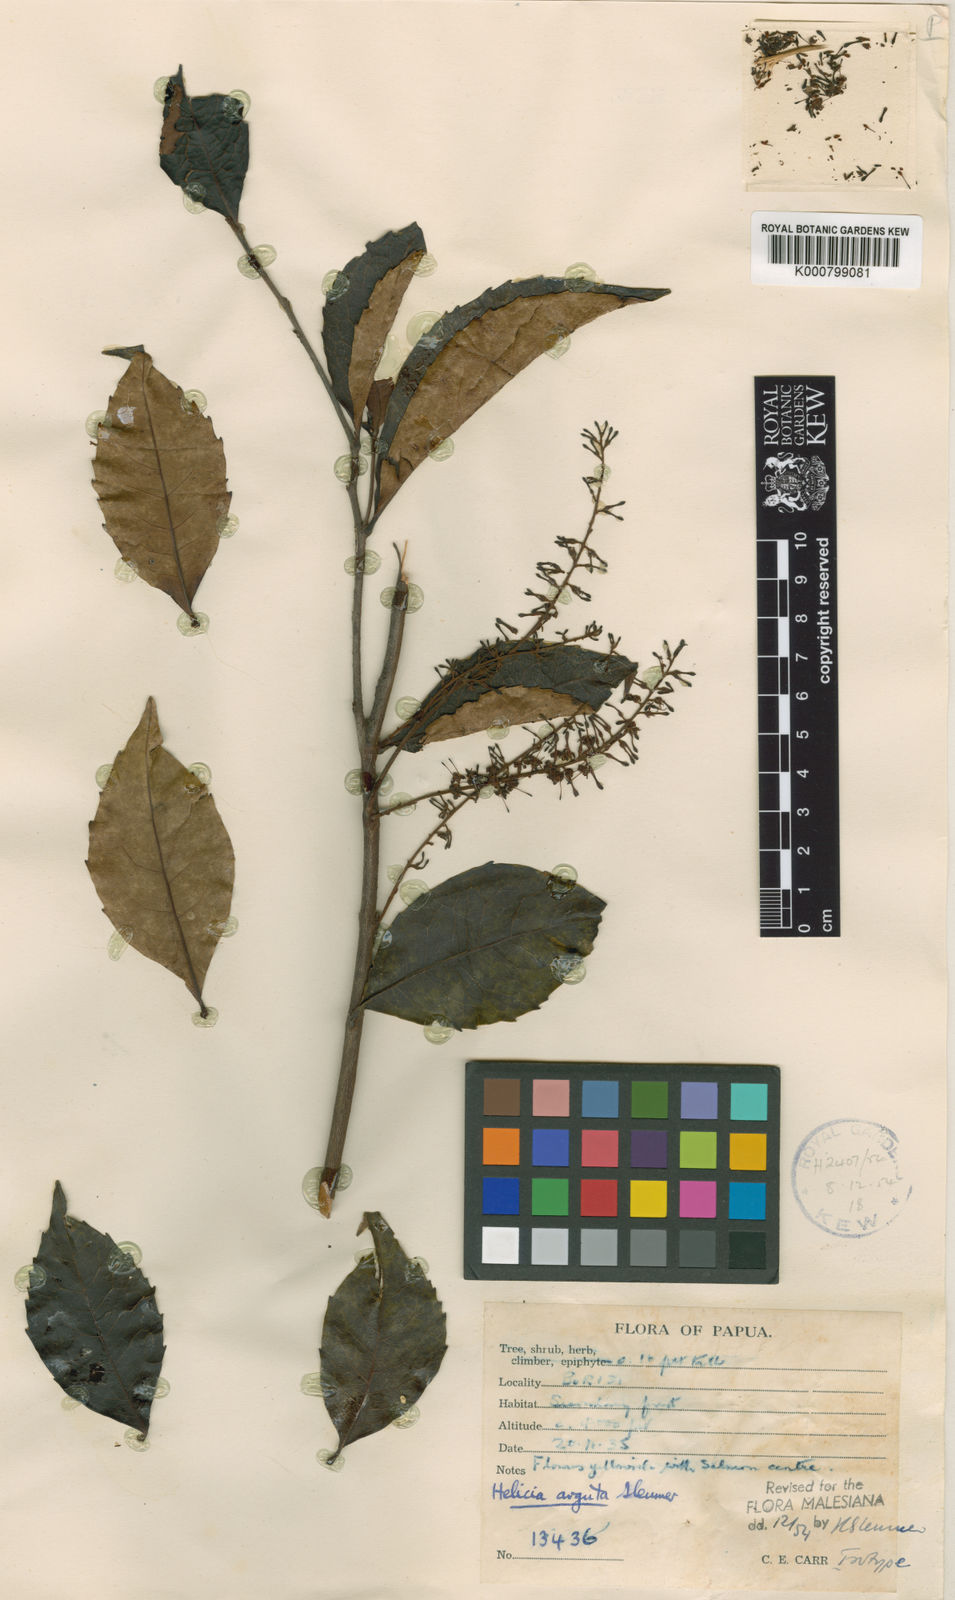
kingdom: Plantae
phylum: Tracheophyta
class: Magnoliopsida
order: Proteales
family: Proteaceae
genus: Helicia
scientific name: Helicia microneura
